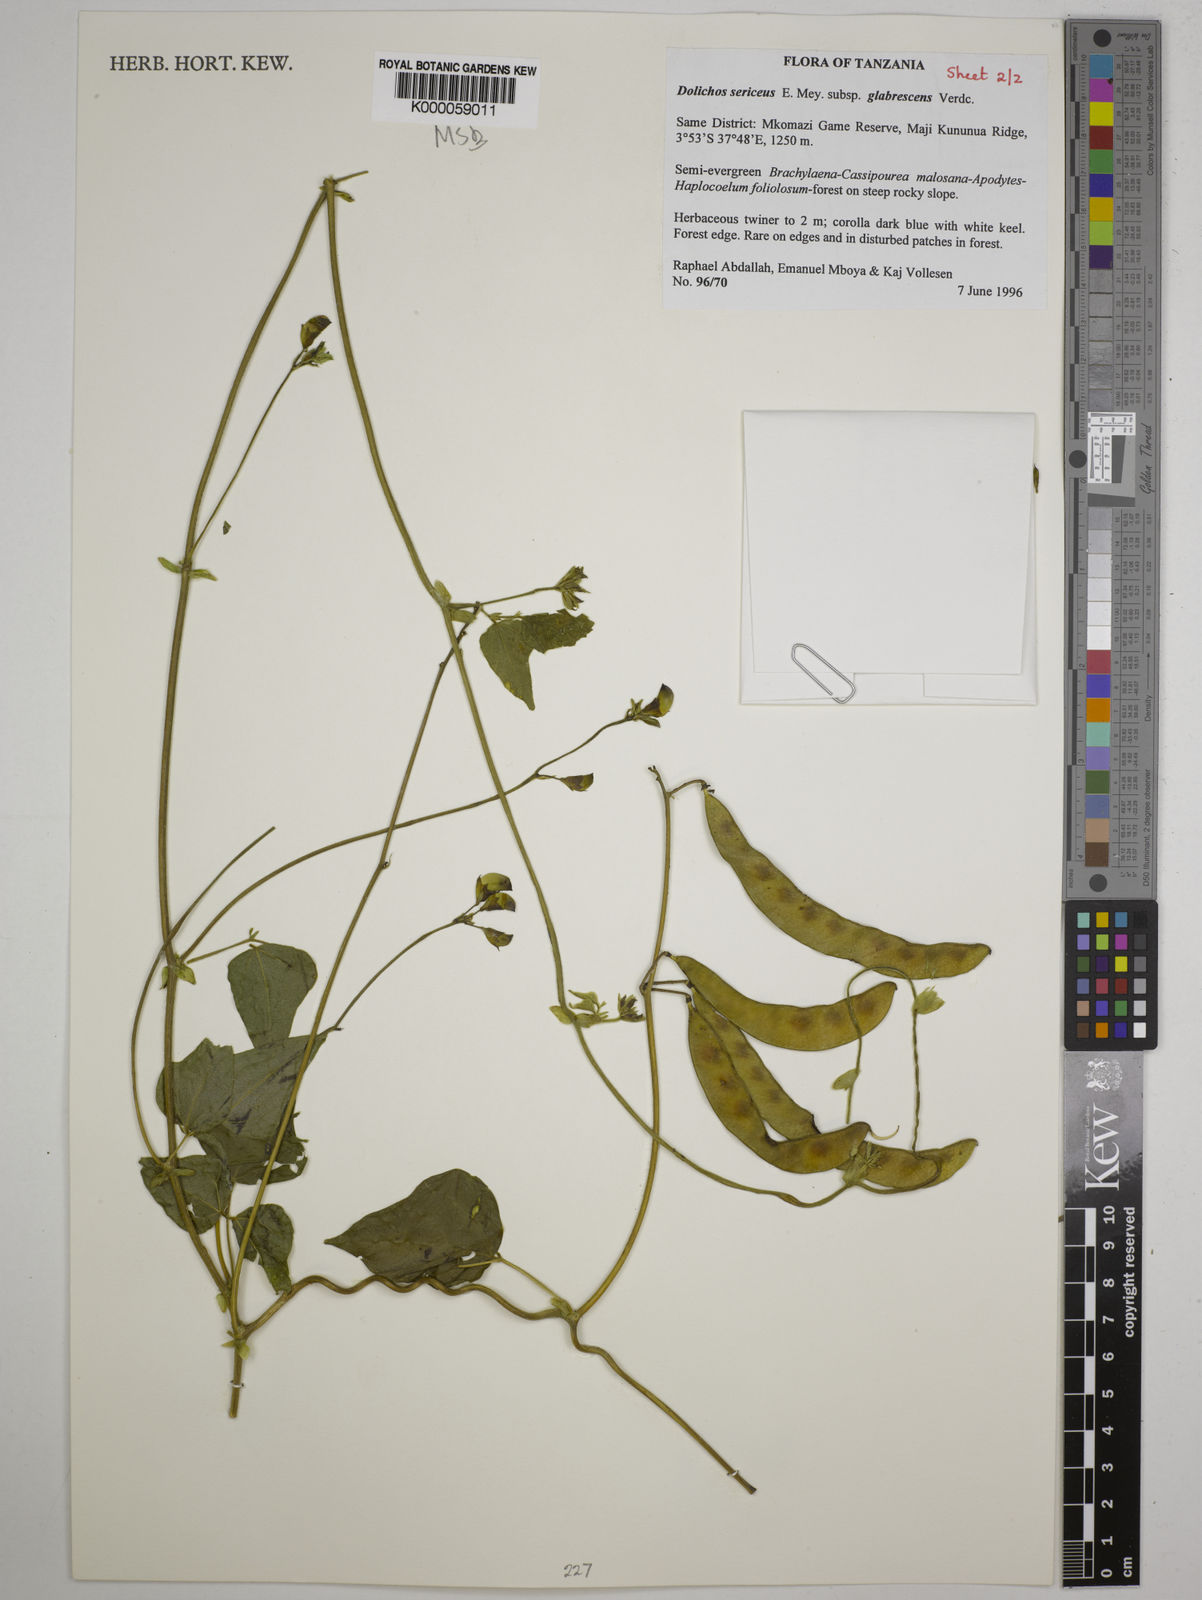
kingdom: Plantae
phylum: Tracheophyta
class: Magnoliopsida
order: Fabales
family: Fabaceae
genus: Dolichos
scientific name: Dolichos sericeus
